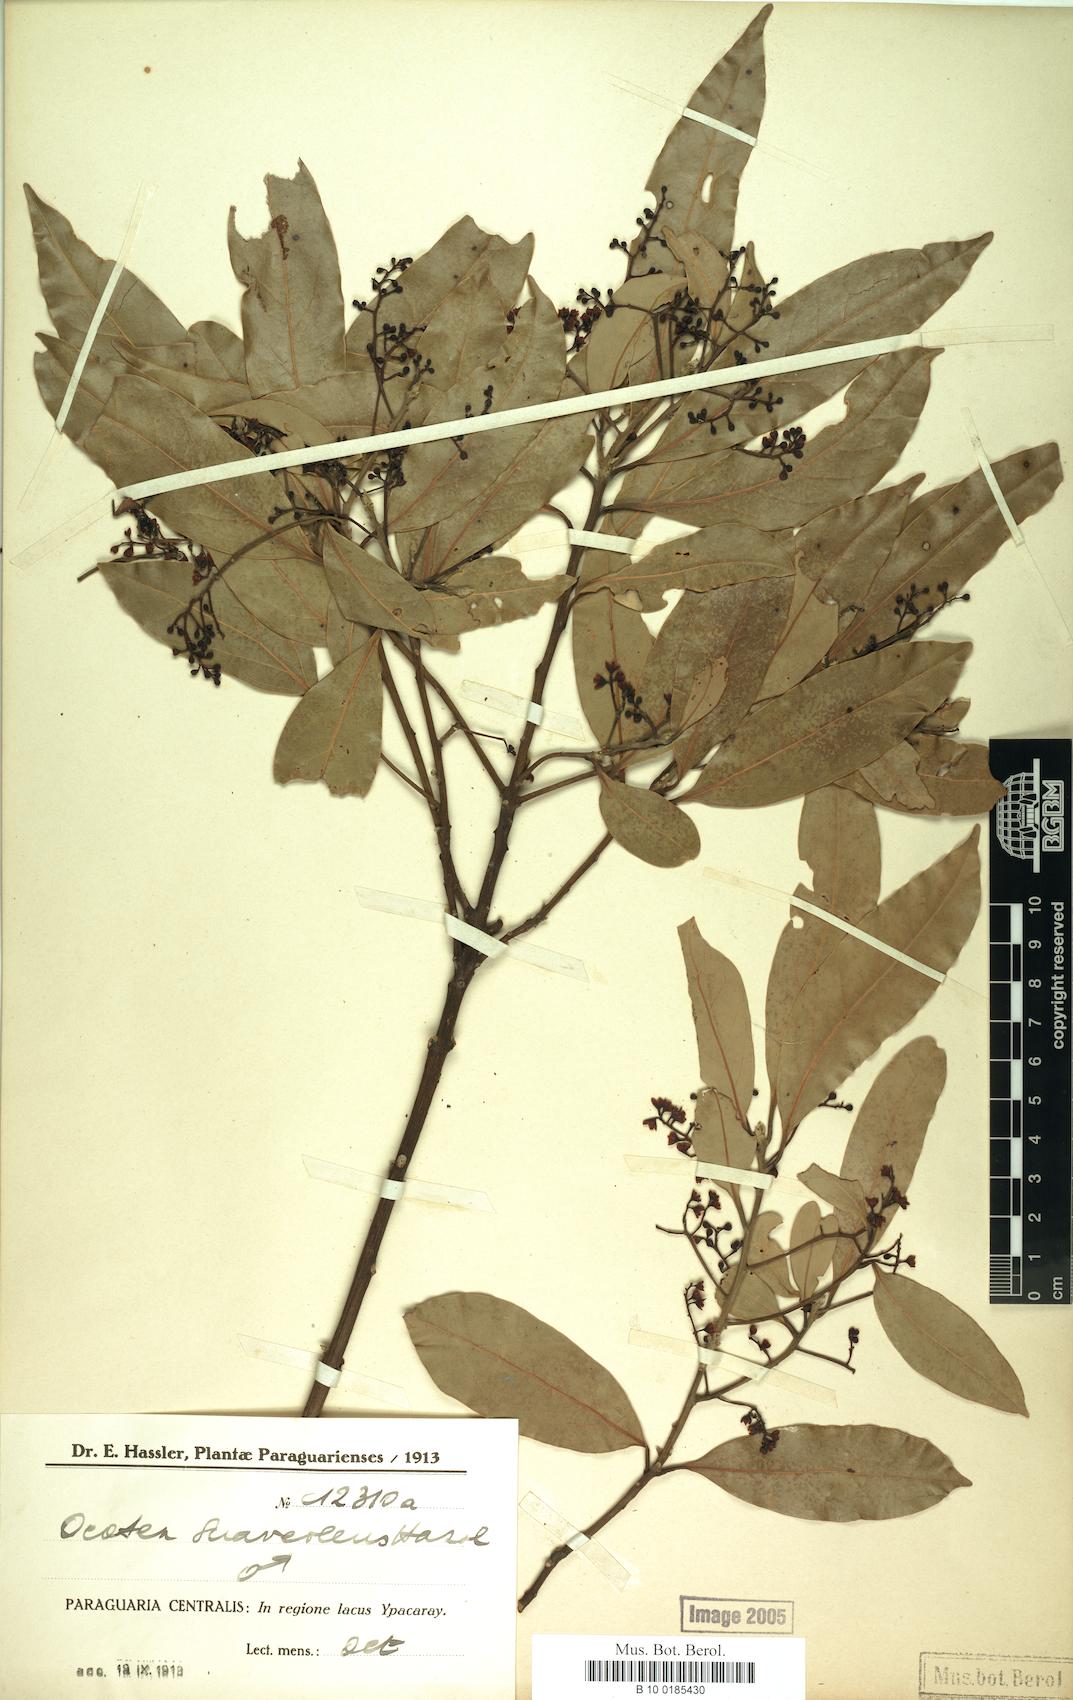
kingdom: Plantae
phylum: Tracheophyta
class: Magnoliopsida
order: Laurales
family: Lauraceae
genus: Ocotea
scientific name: Ocotea diospyrifolia
